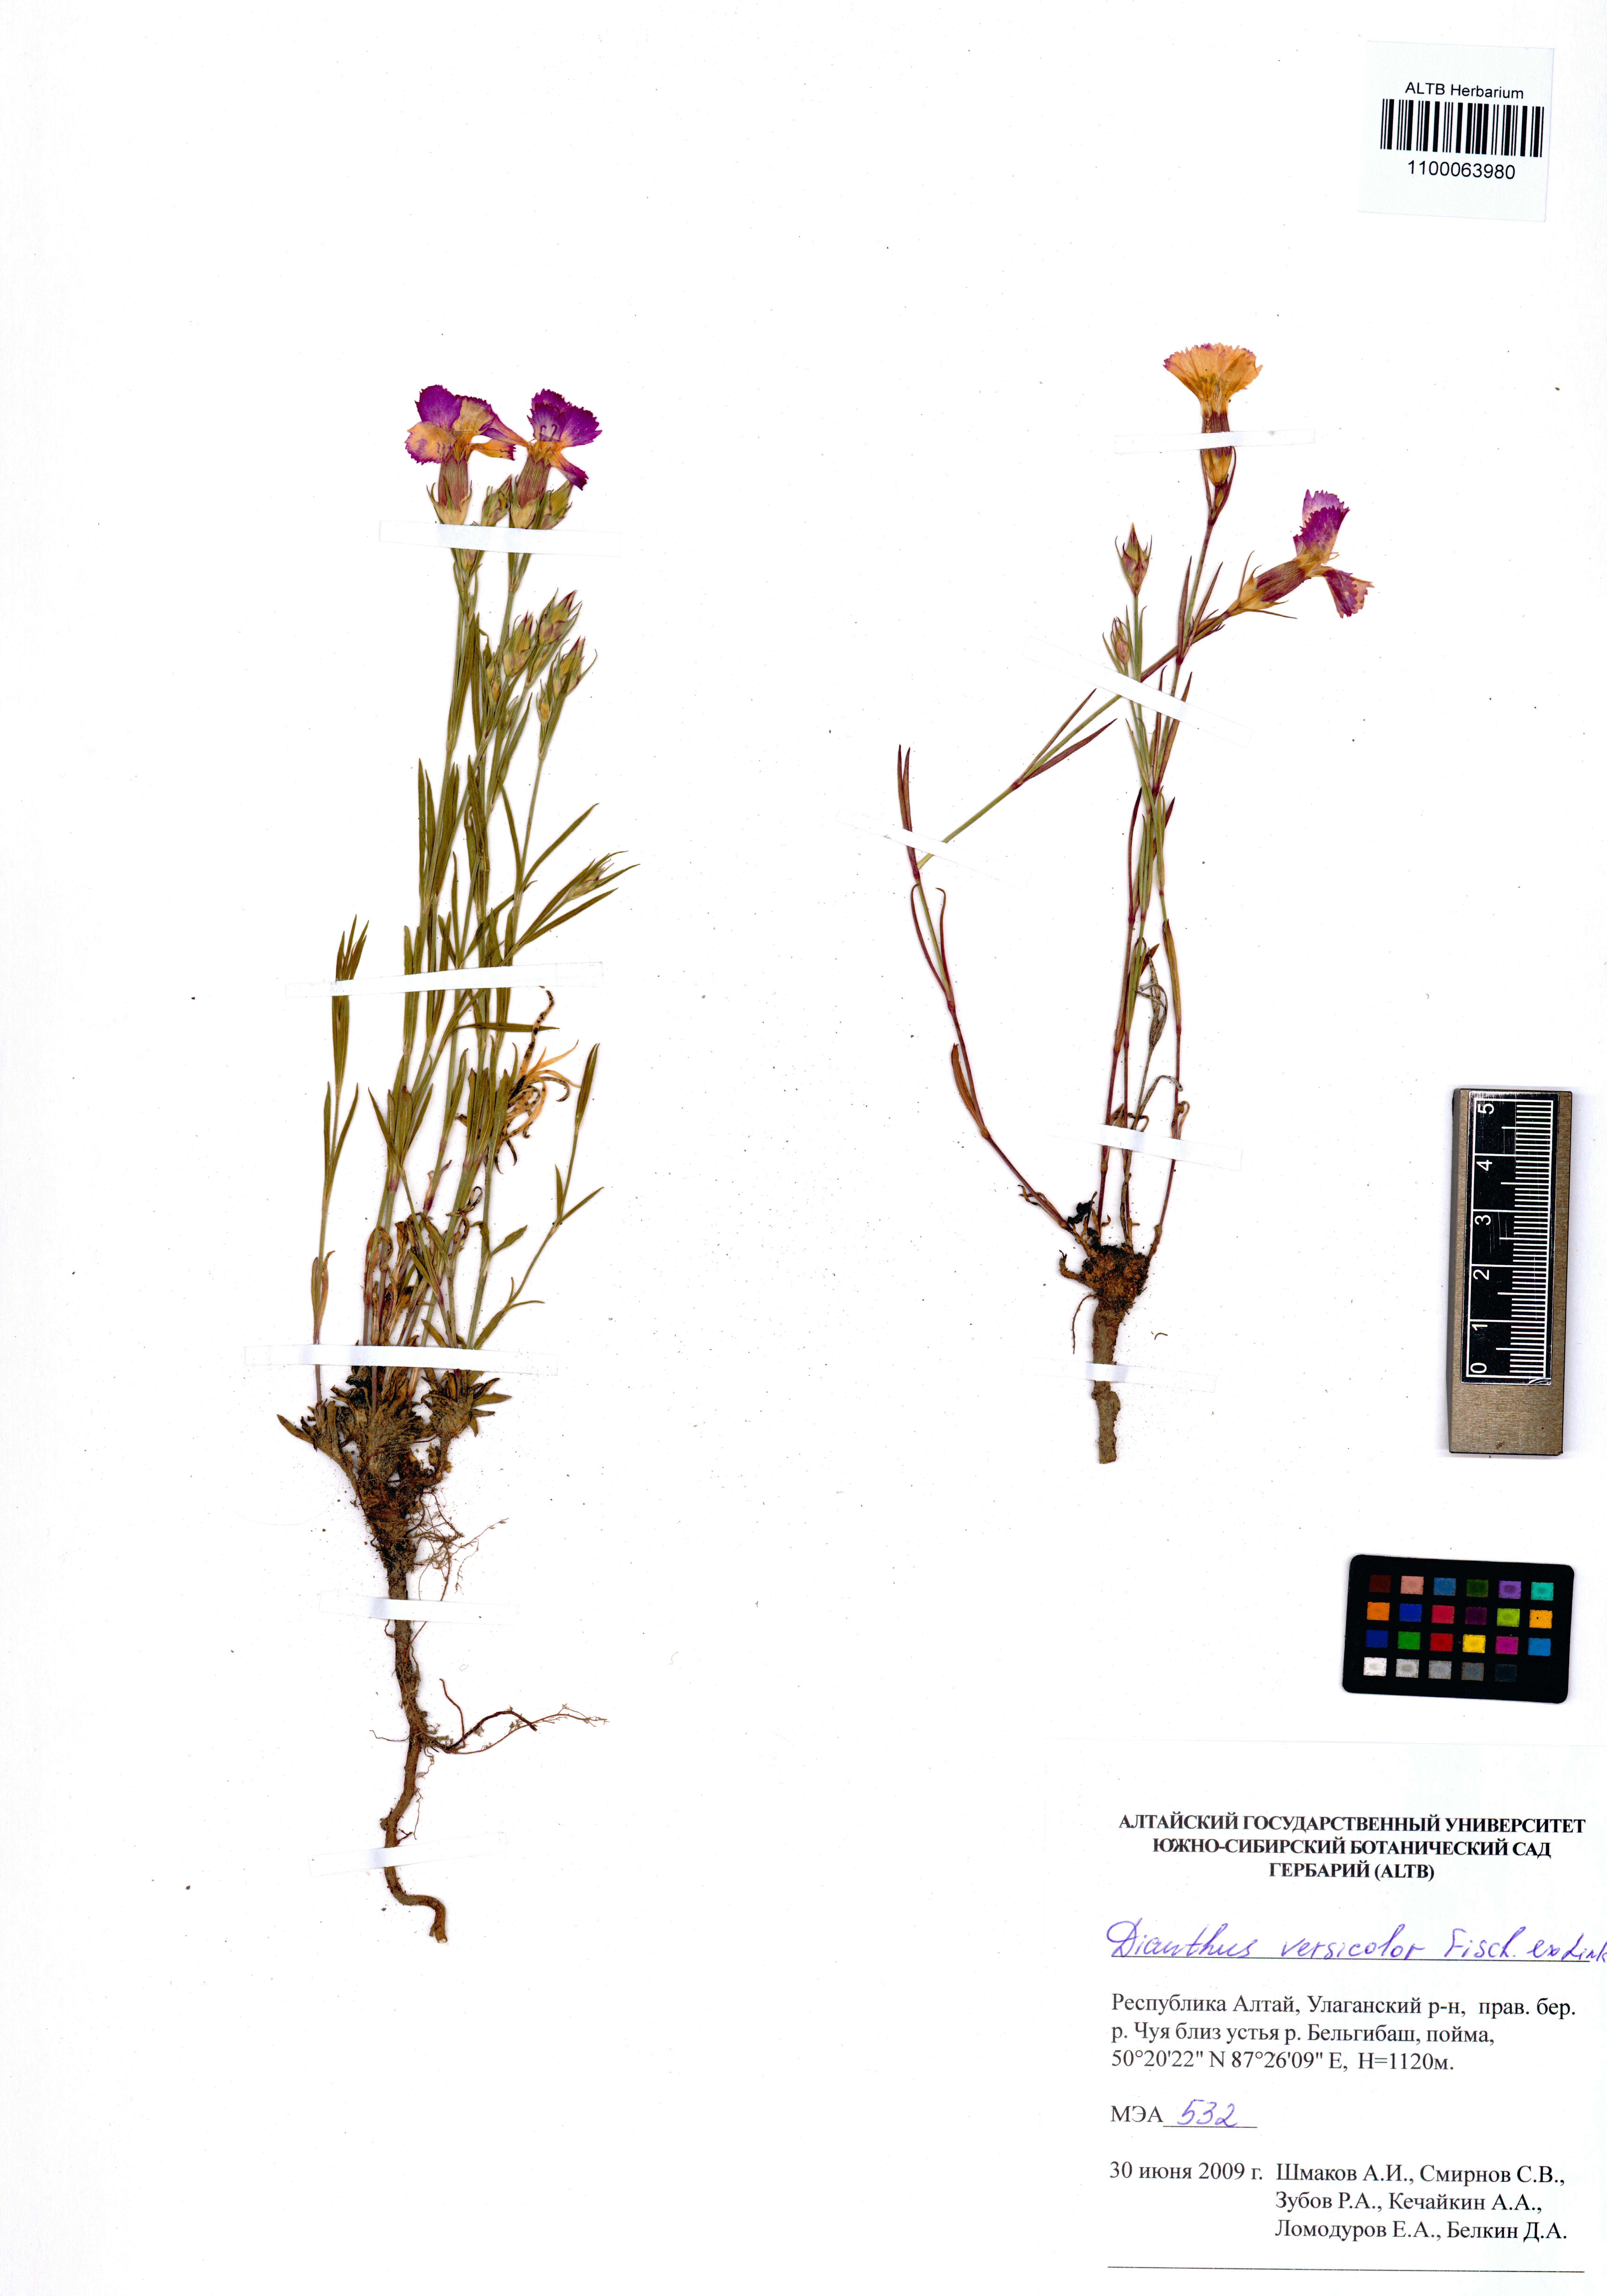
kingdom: Plantae
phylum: Tracheophyta
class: Magnoliopsida
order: Caryophyllales
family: Caryophyllaceae
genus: Dianthus
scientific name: Dianthus chinensis
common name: Rainbow pink
